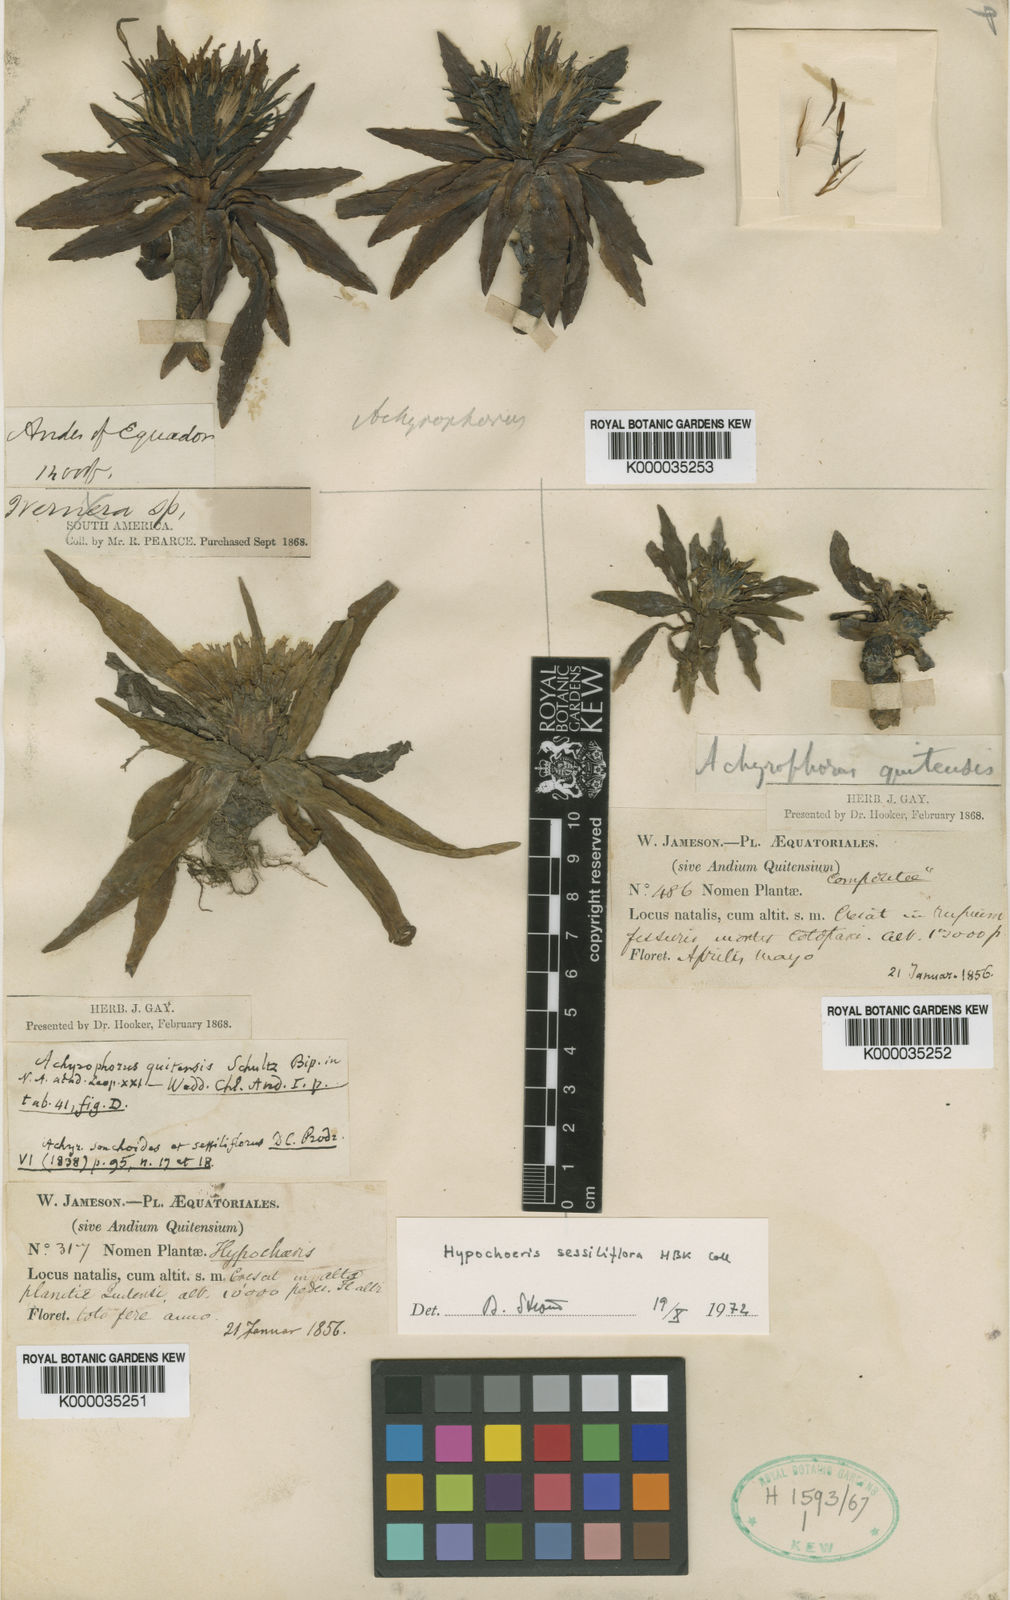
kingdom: Plantae
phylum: Tracheophyta
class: Magnoliopsida
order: Asterales
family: Asteraceae
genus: Hypochaeris
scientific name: Hypochaeris sessiliflora
